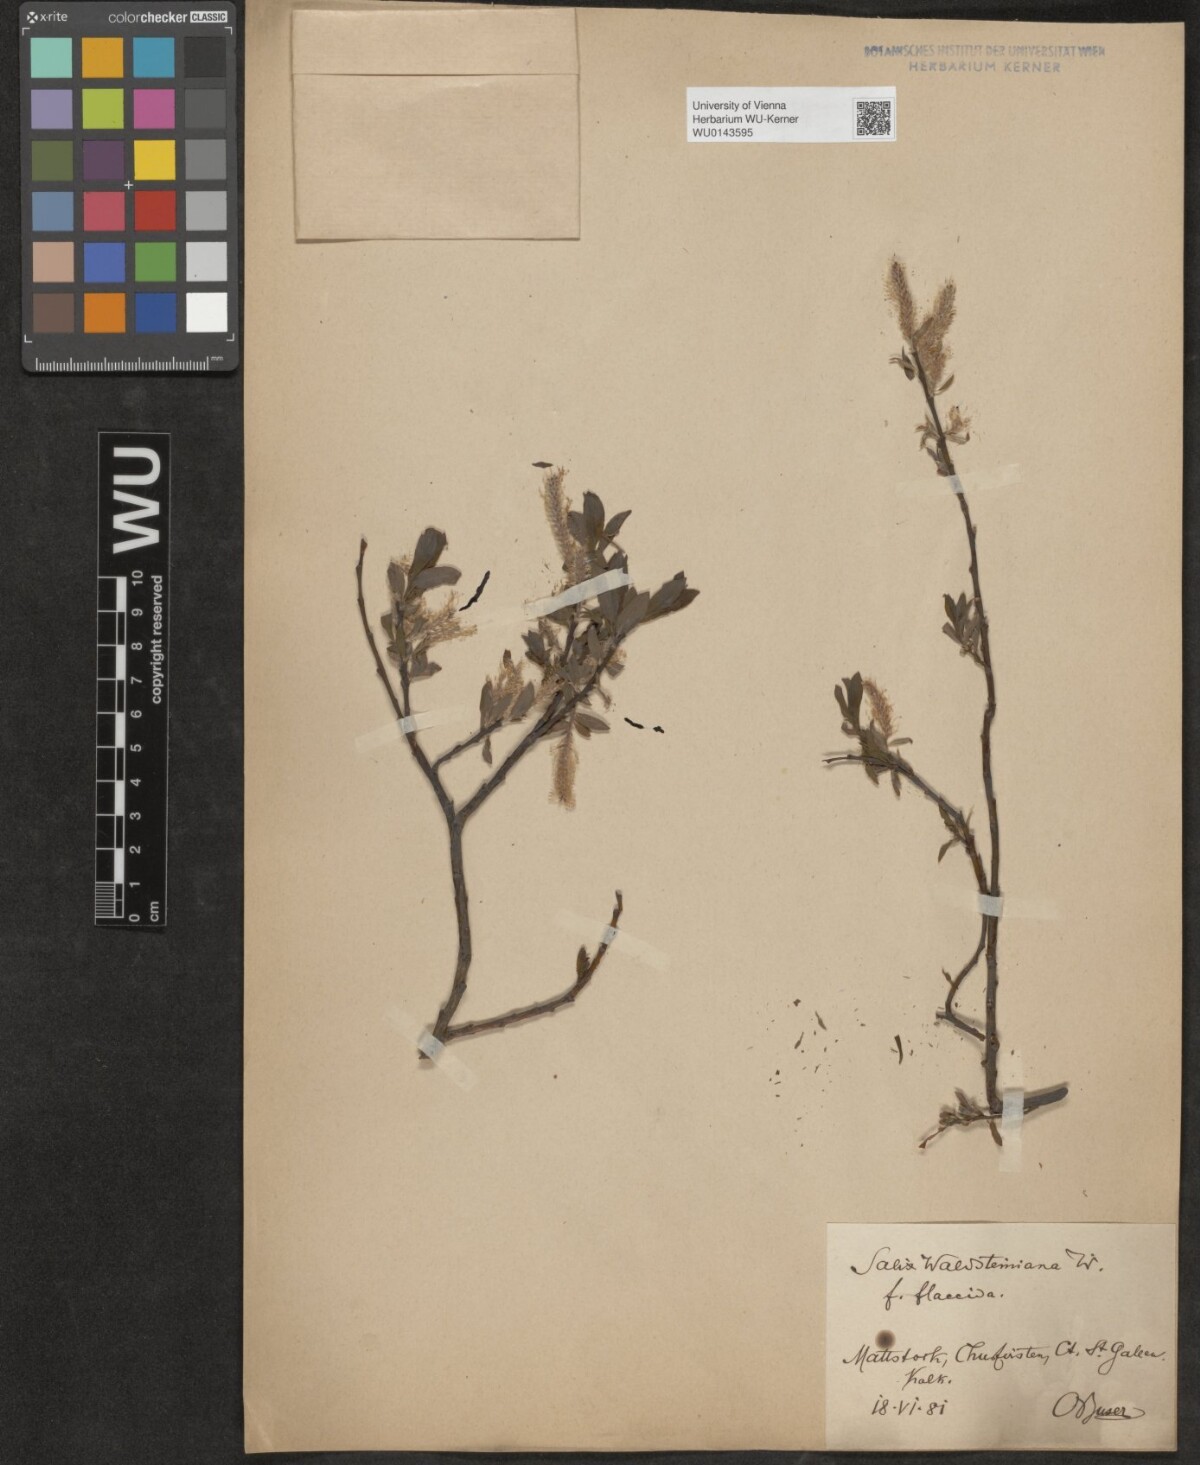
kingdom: Plantae
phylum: Tracheophyta
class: Magnoliopsida
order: Malpighiales
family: Salicaceae
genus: Salix
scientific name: Salix waldsteiniana
